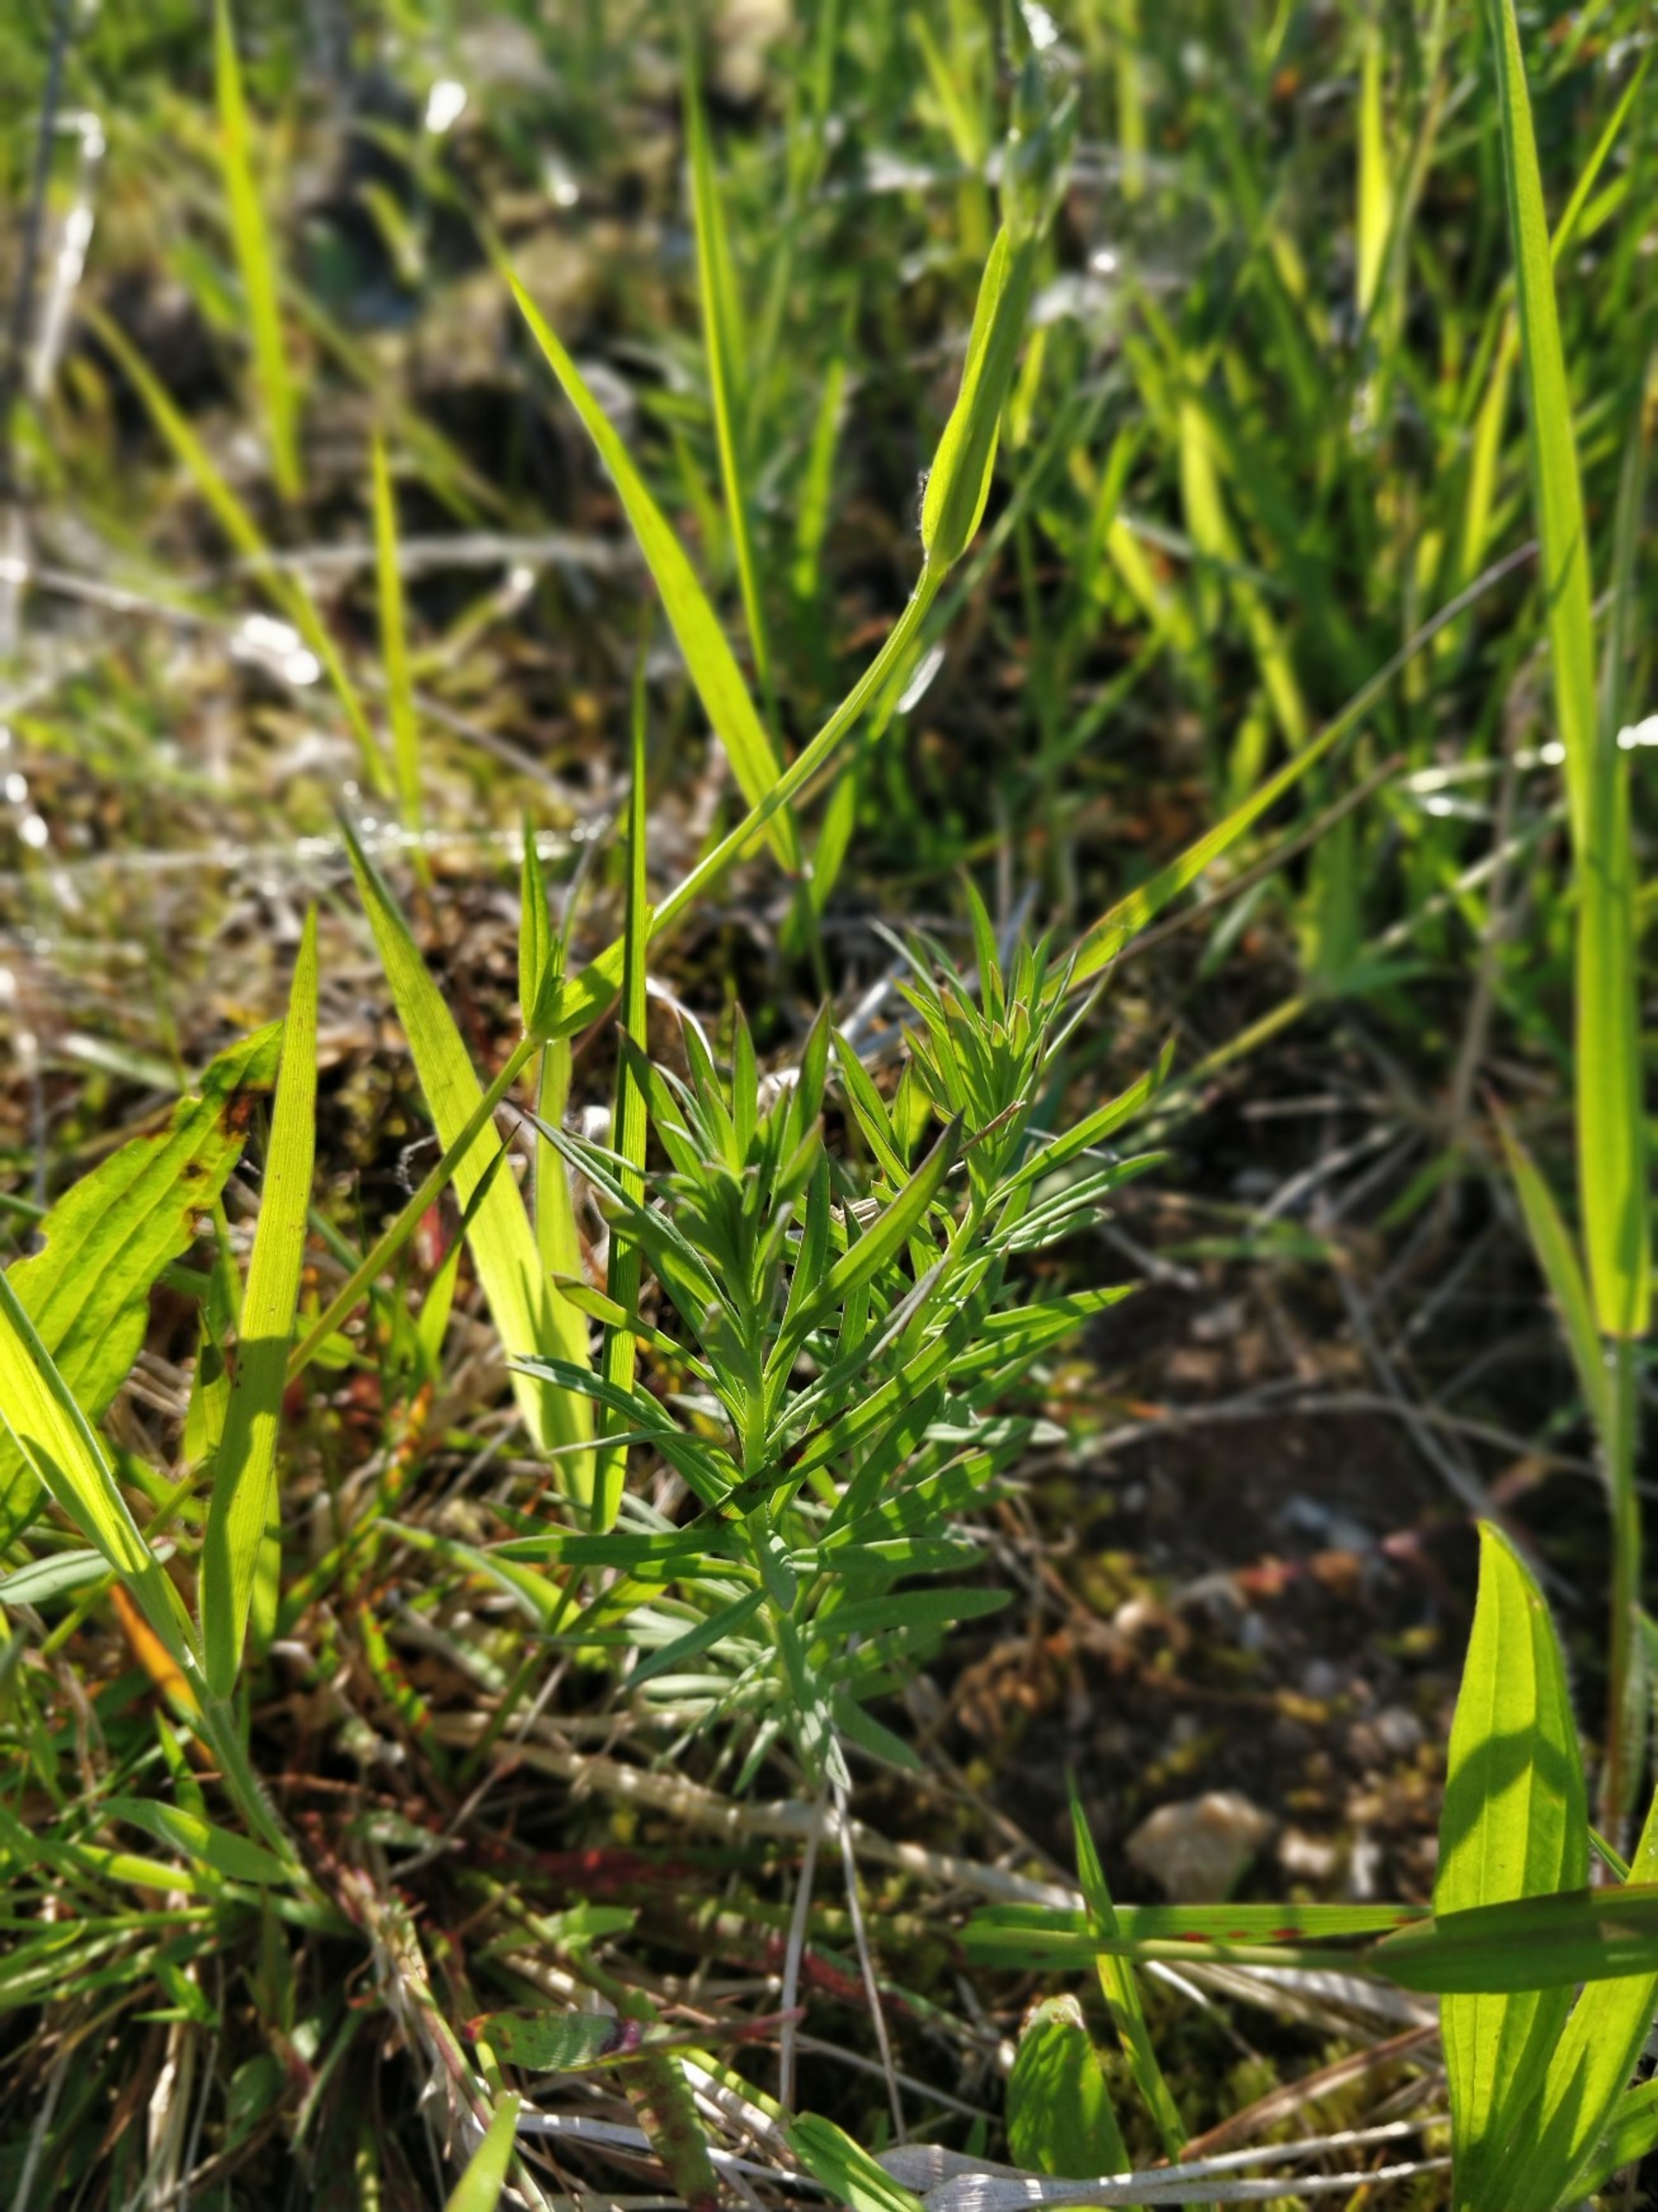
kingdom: Plantae
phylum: Tracheophyta
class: Magnoliopsida
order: Lamiales
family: Plantaginaceae
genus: Linaria
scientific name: Linaria vulgaris
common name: Almindelig torskemund
